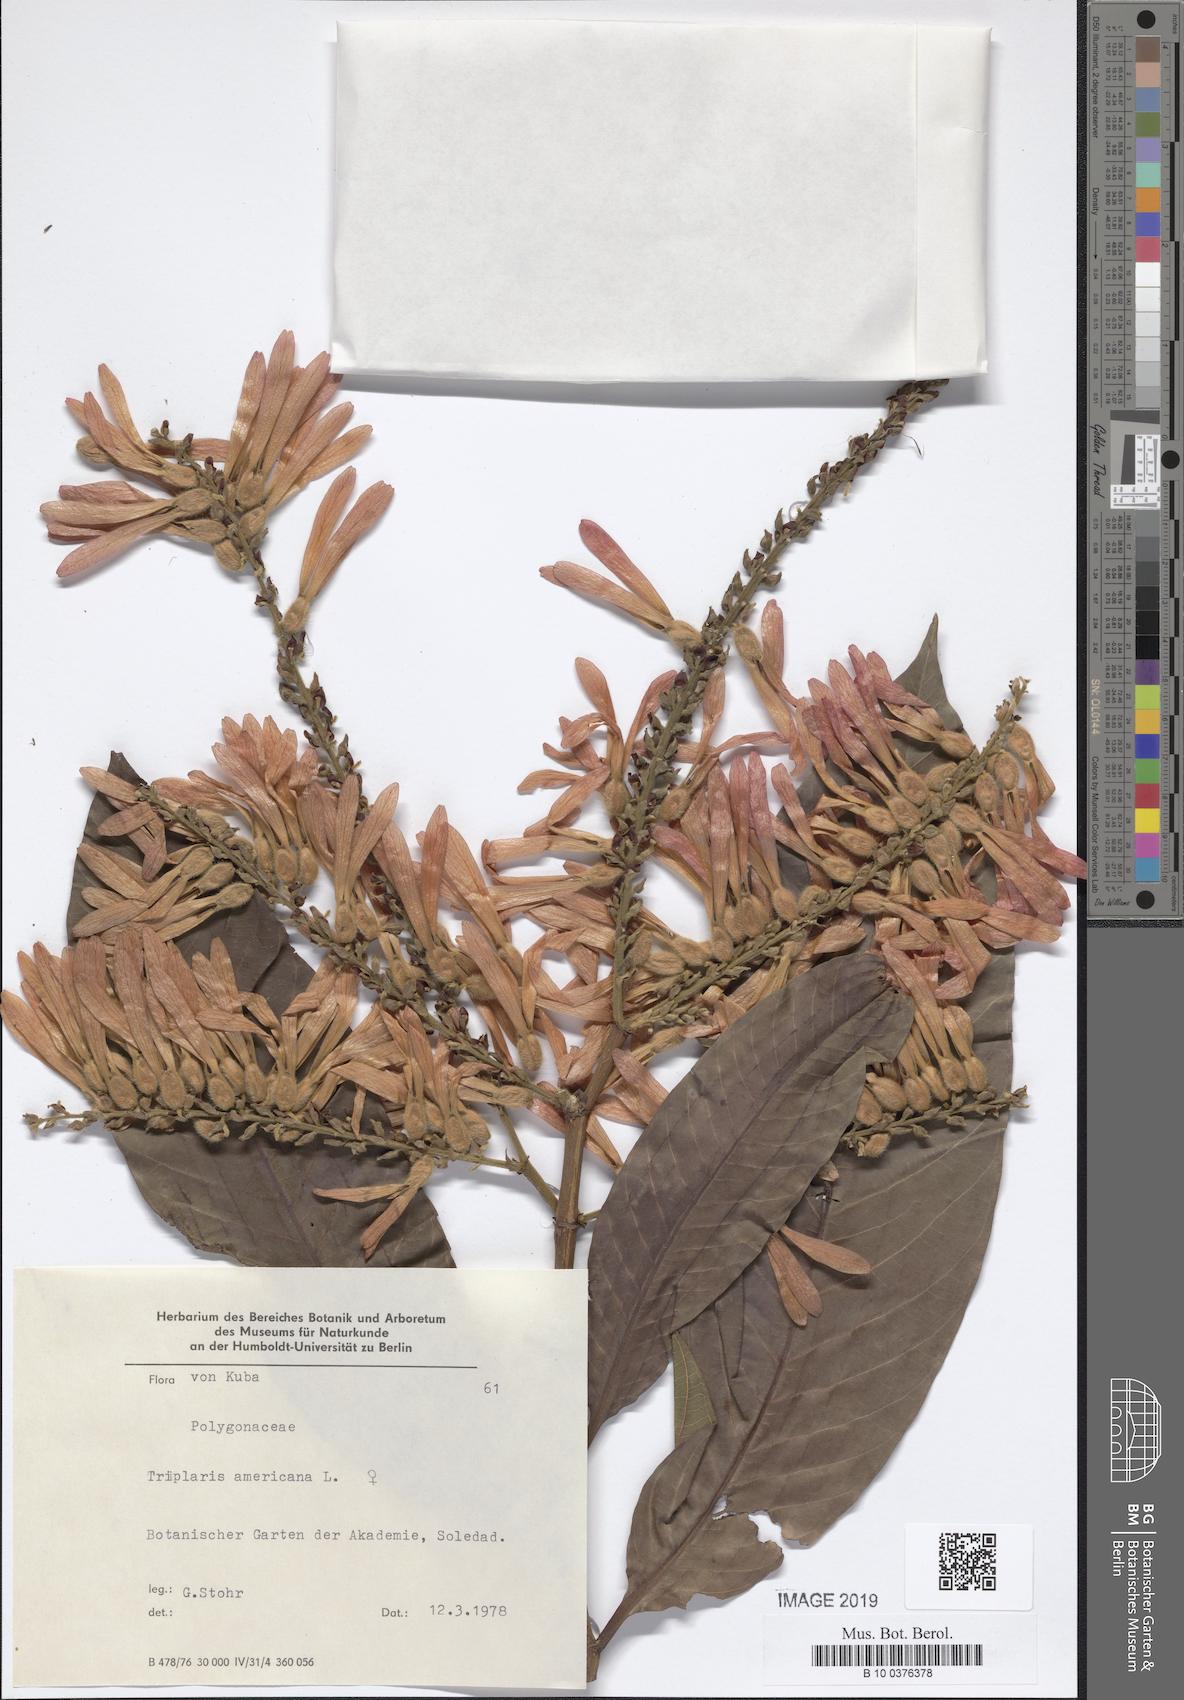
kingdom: Plantae
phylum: Tracheophyta
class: Magnoliopsida
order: Caryophyllales
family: Polygonaceae
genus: Triplaris
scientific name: Triplaris americana
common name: Ant-tree
